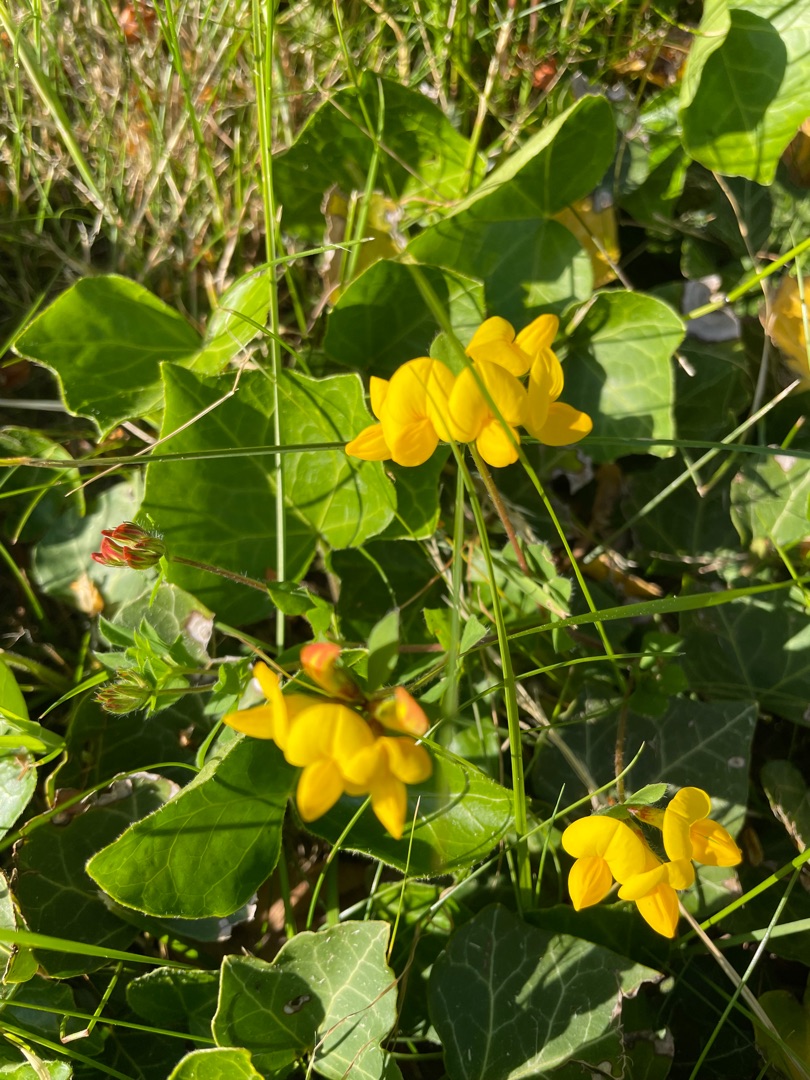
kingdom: Plantae
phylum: Tracheophyta
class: Magnoliopsida
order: Fabales
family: Fabaceae
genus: Lotus
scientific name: Lotus corniculatus
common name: Almindelig kællingetand
